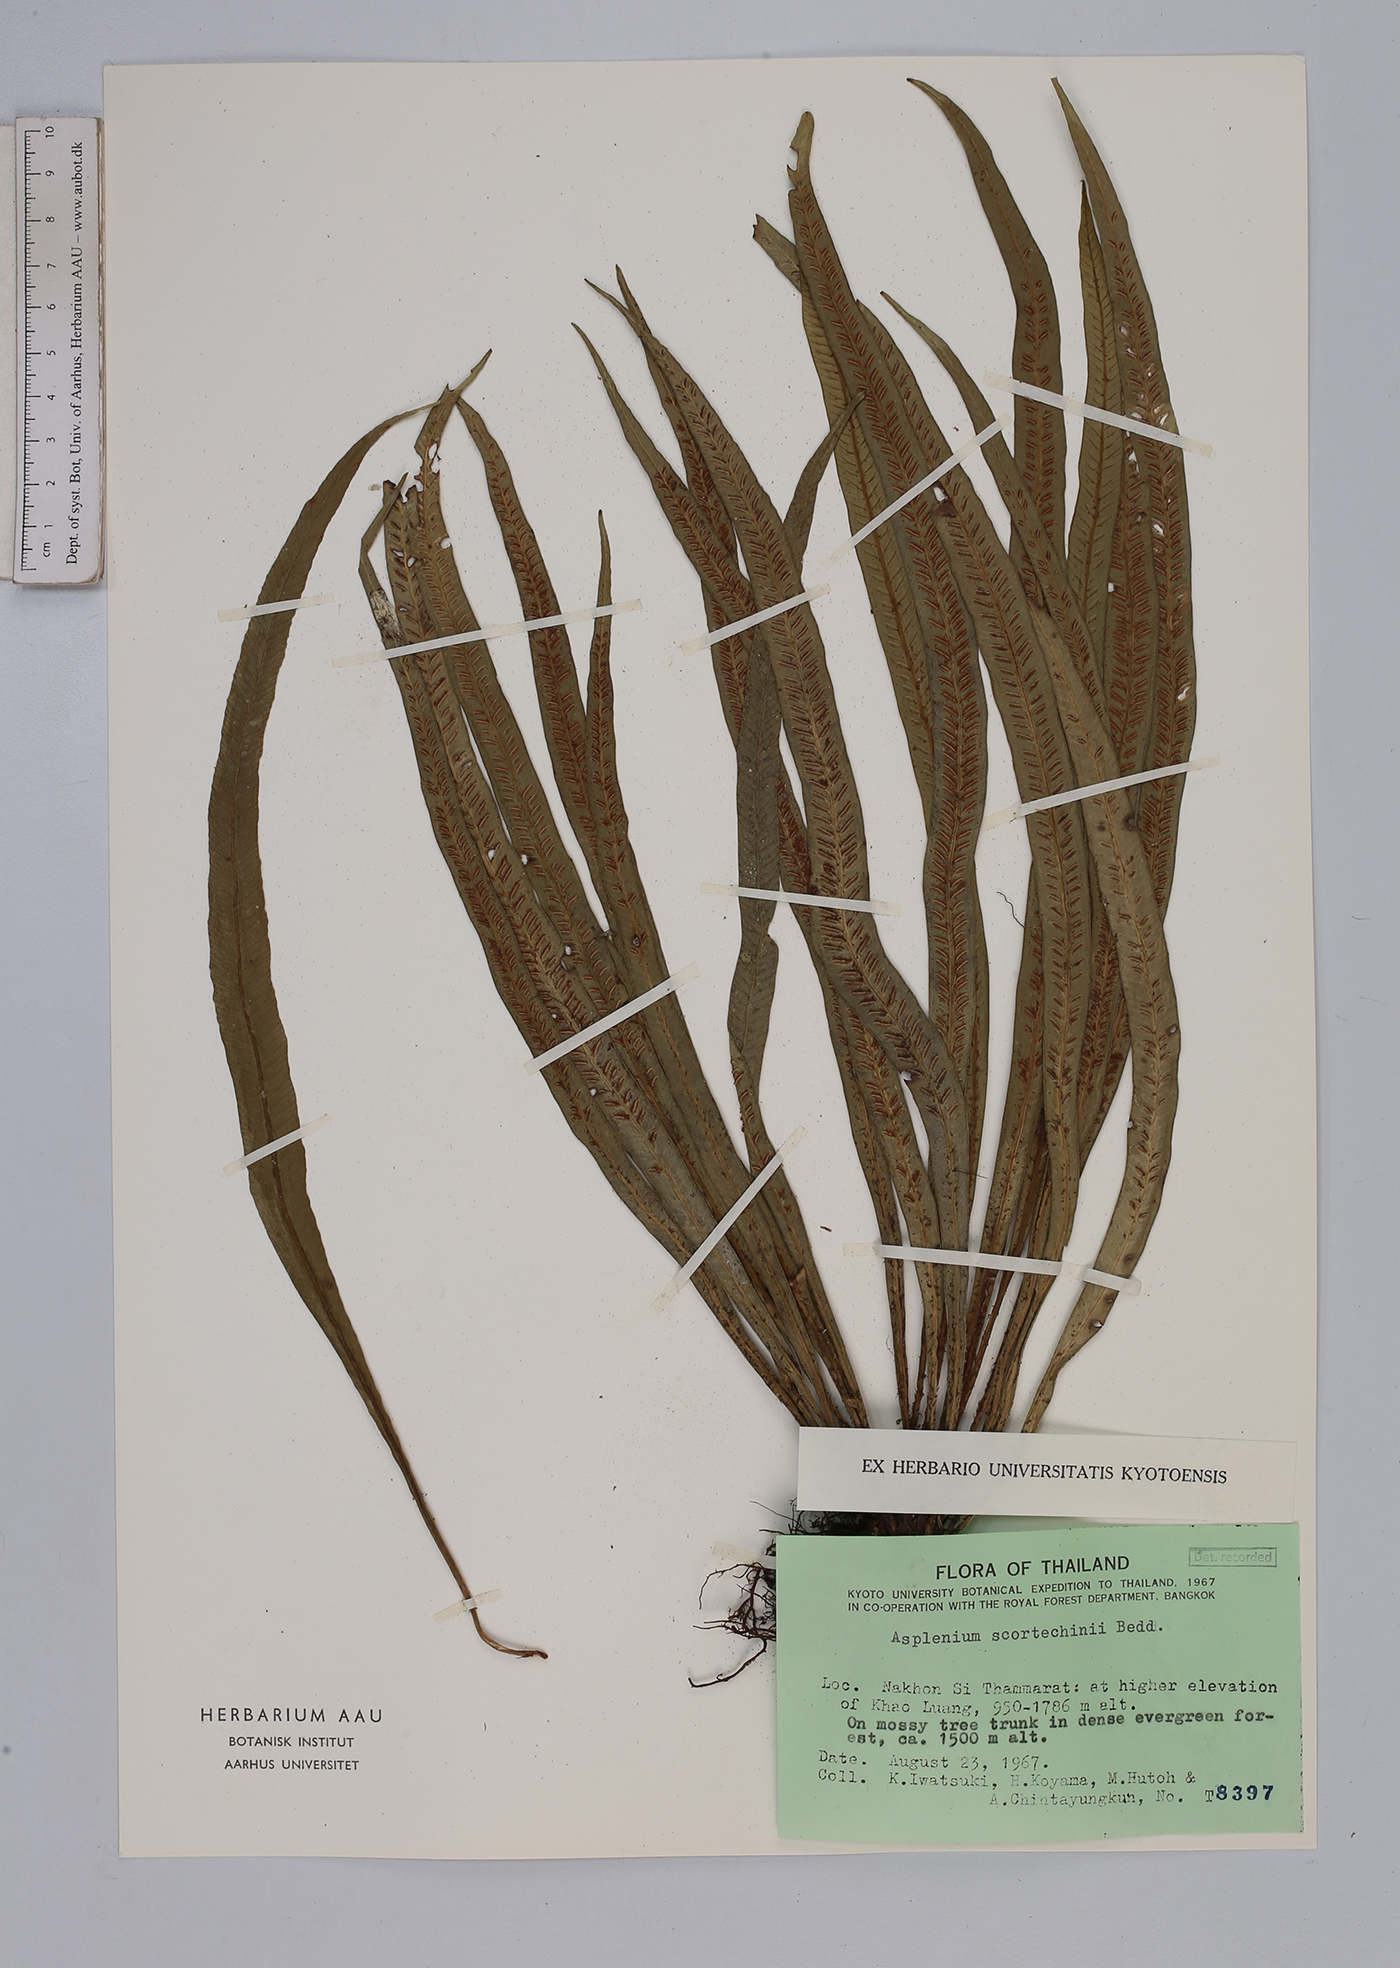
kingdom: Plantae
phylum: Tracheophyta
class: Polypodiopsida
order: Polypodiales
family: Aspleniaceae
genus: Asplenium
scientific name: Asplenium scortechinii
